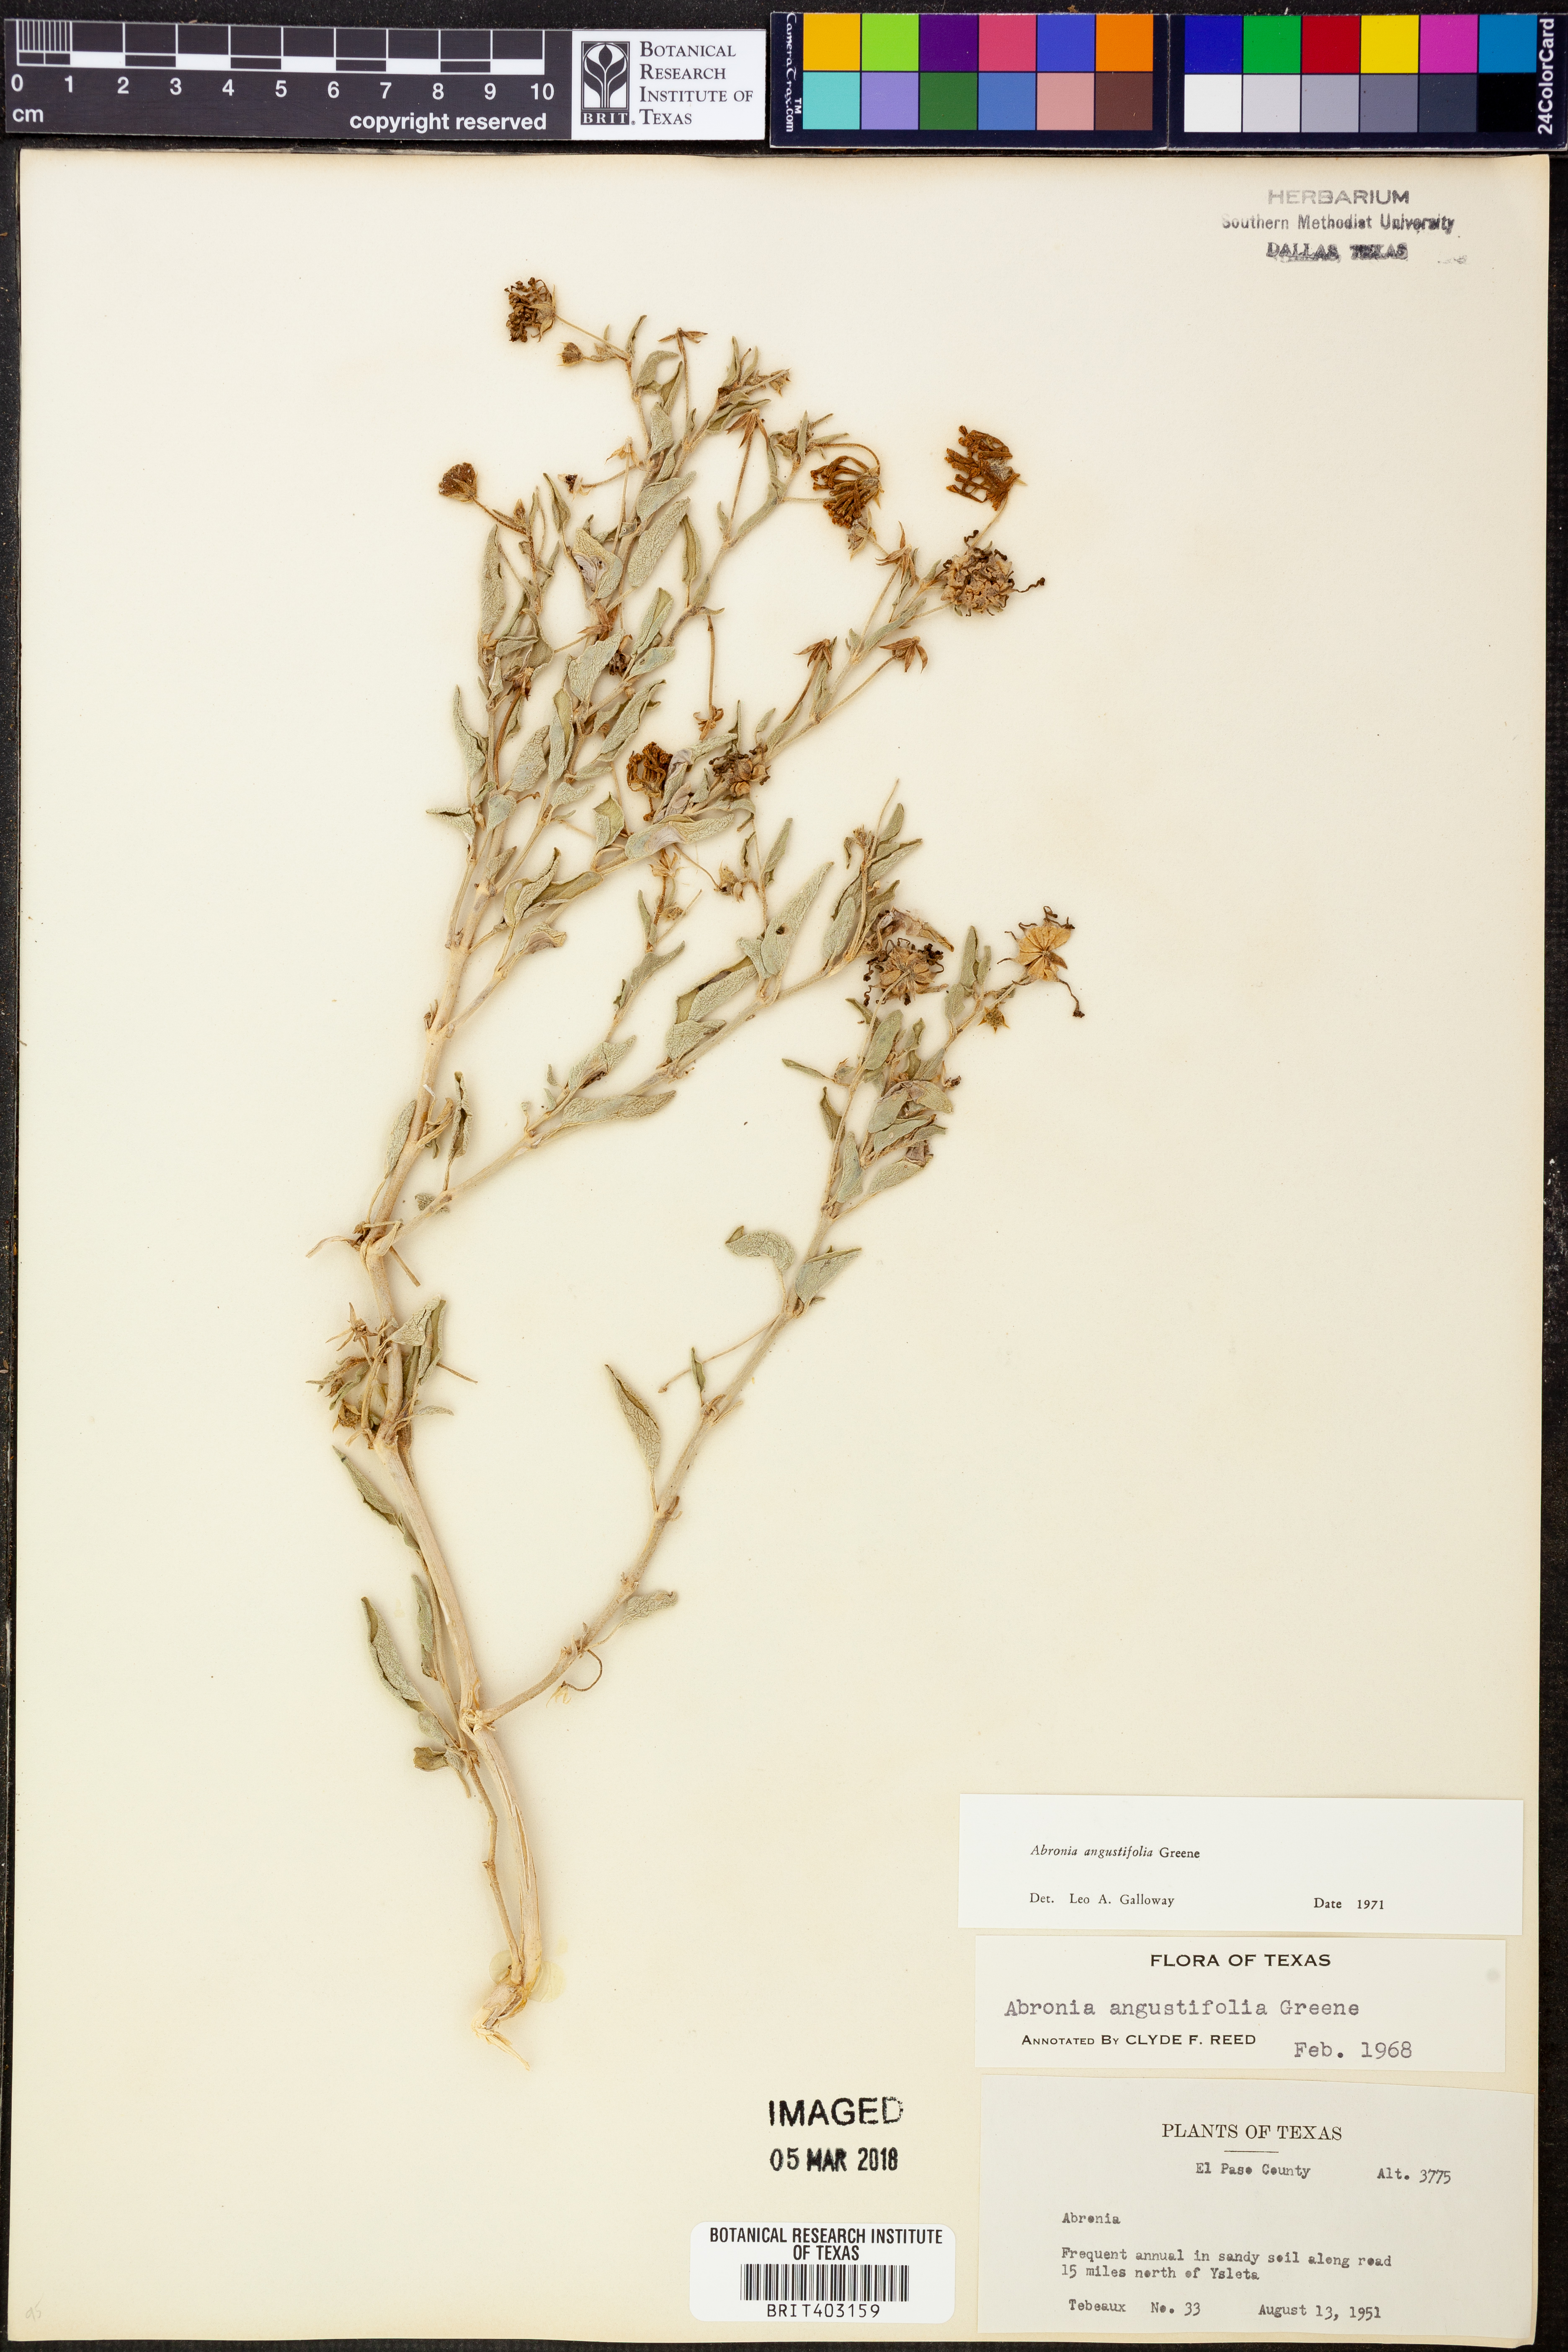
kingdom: Plantae
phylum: Tracheophyta
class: Magnoliopsida
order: Caryophyllales
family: Nyctaginaceae
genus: Abronia
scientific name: Abronia angustifolia
